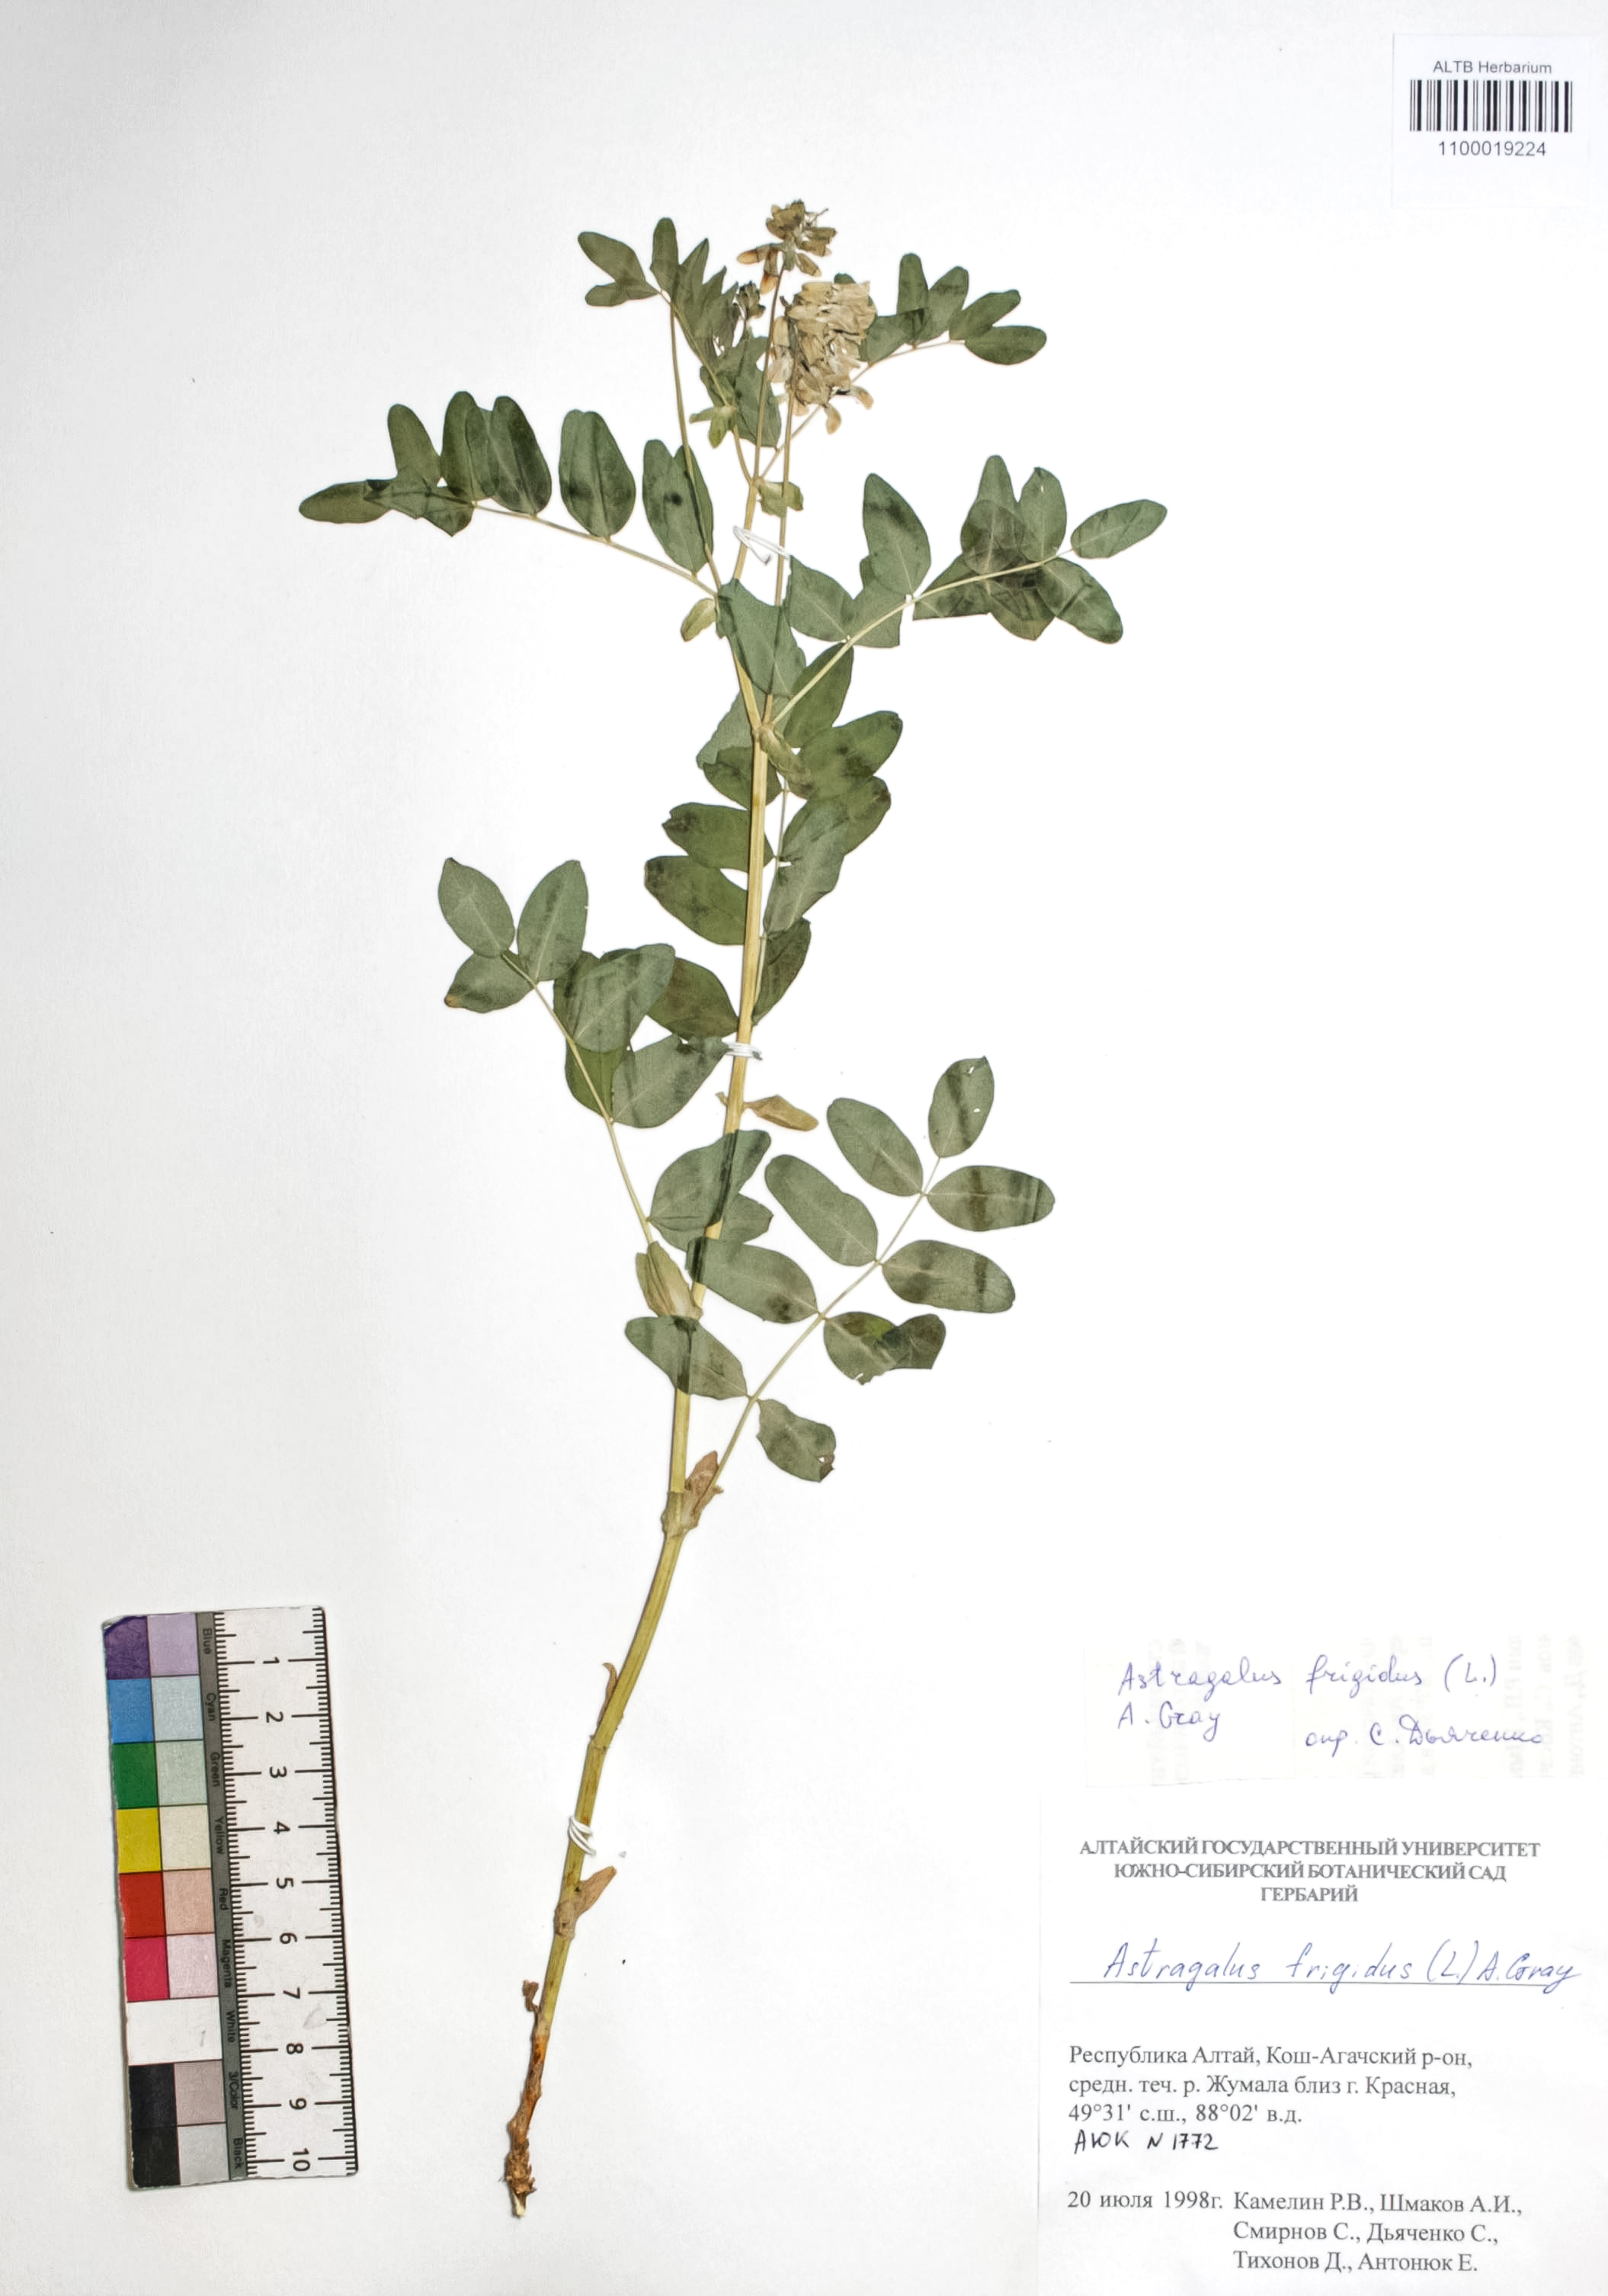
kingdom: Plantae
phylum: Tracheophyta
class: Magnoliopsida
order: Fabales
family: Fabaceae
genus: Astragalus
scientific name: Astragalus frigidus
